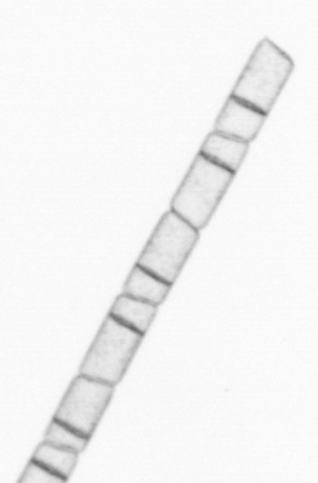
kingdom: Chromista
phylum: Ochrophyta
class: Bacillariophyceae
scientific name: Bacillariophyceae
